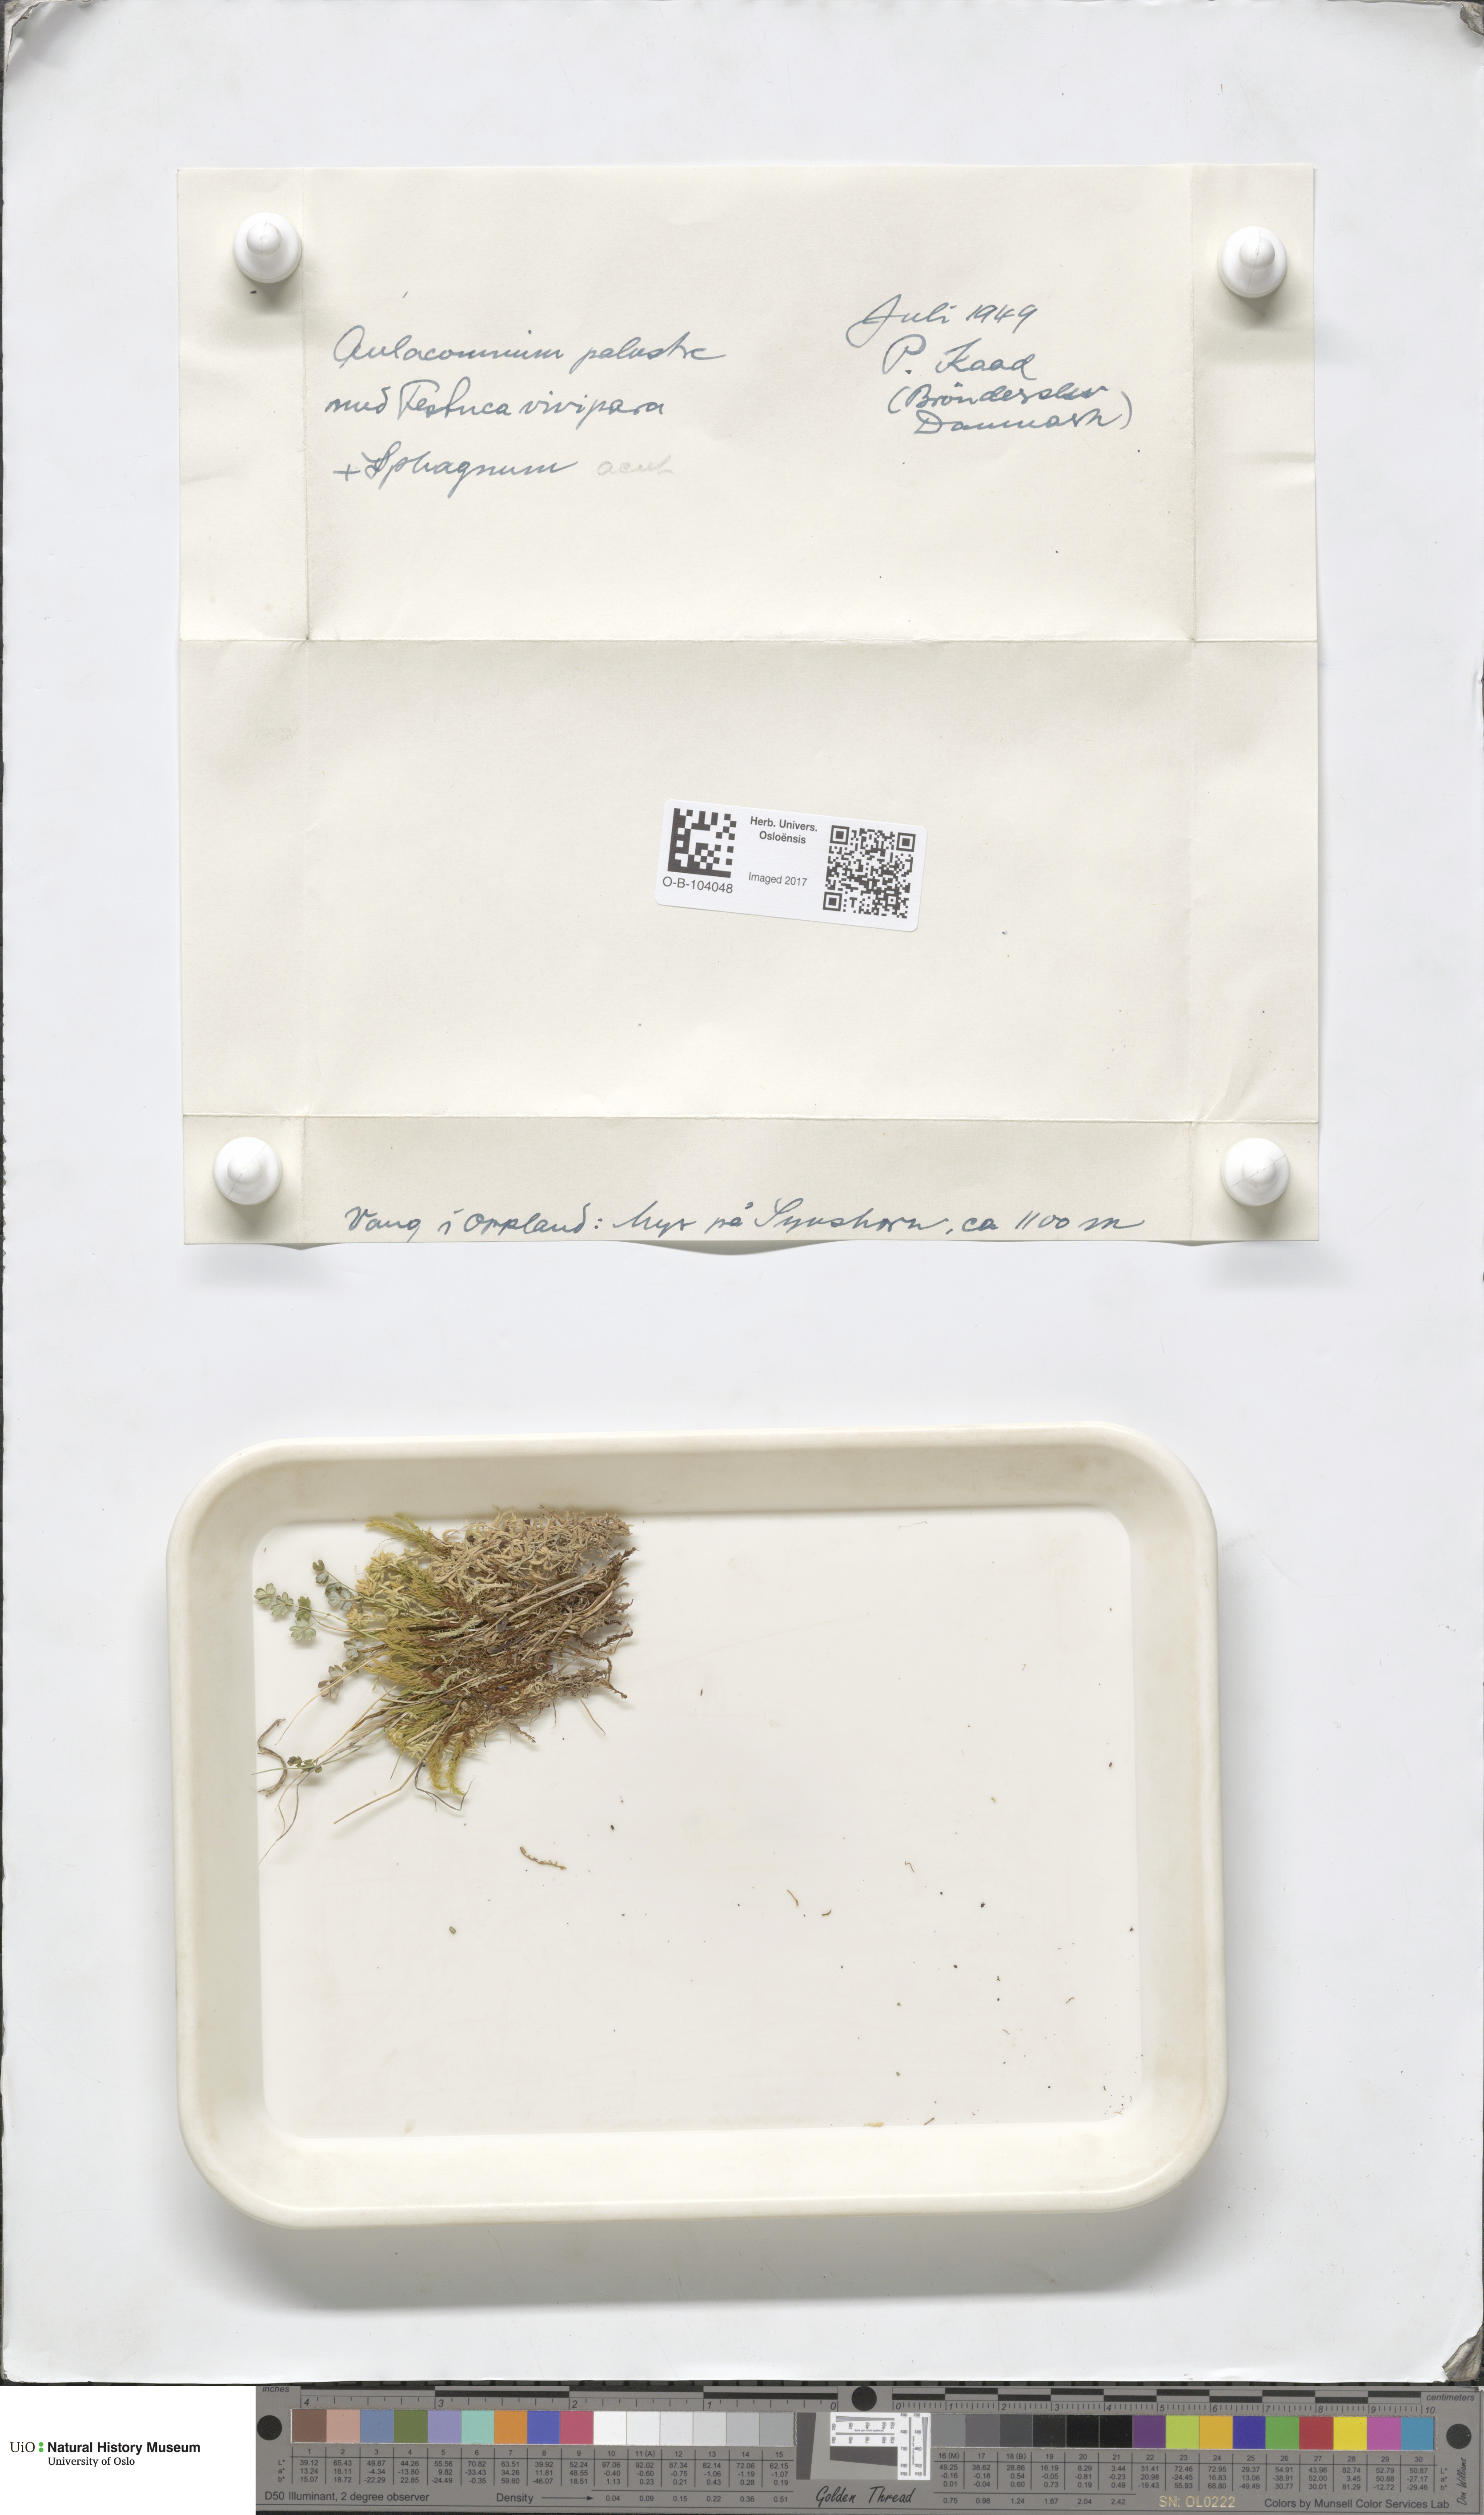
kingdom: Plantae
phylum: Bryophyta
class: Bryopsida
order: Aulacomniales
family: Aulacomniaceae
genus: Aulacomnium
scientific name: Aulacomnium palustre
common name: Bog groove-moss
